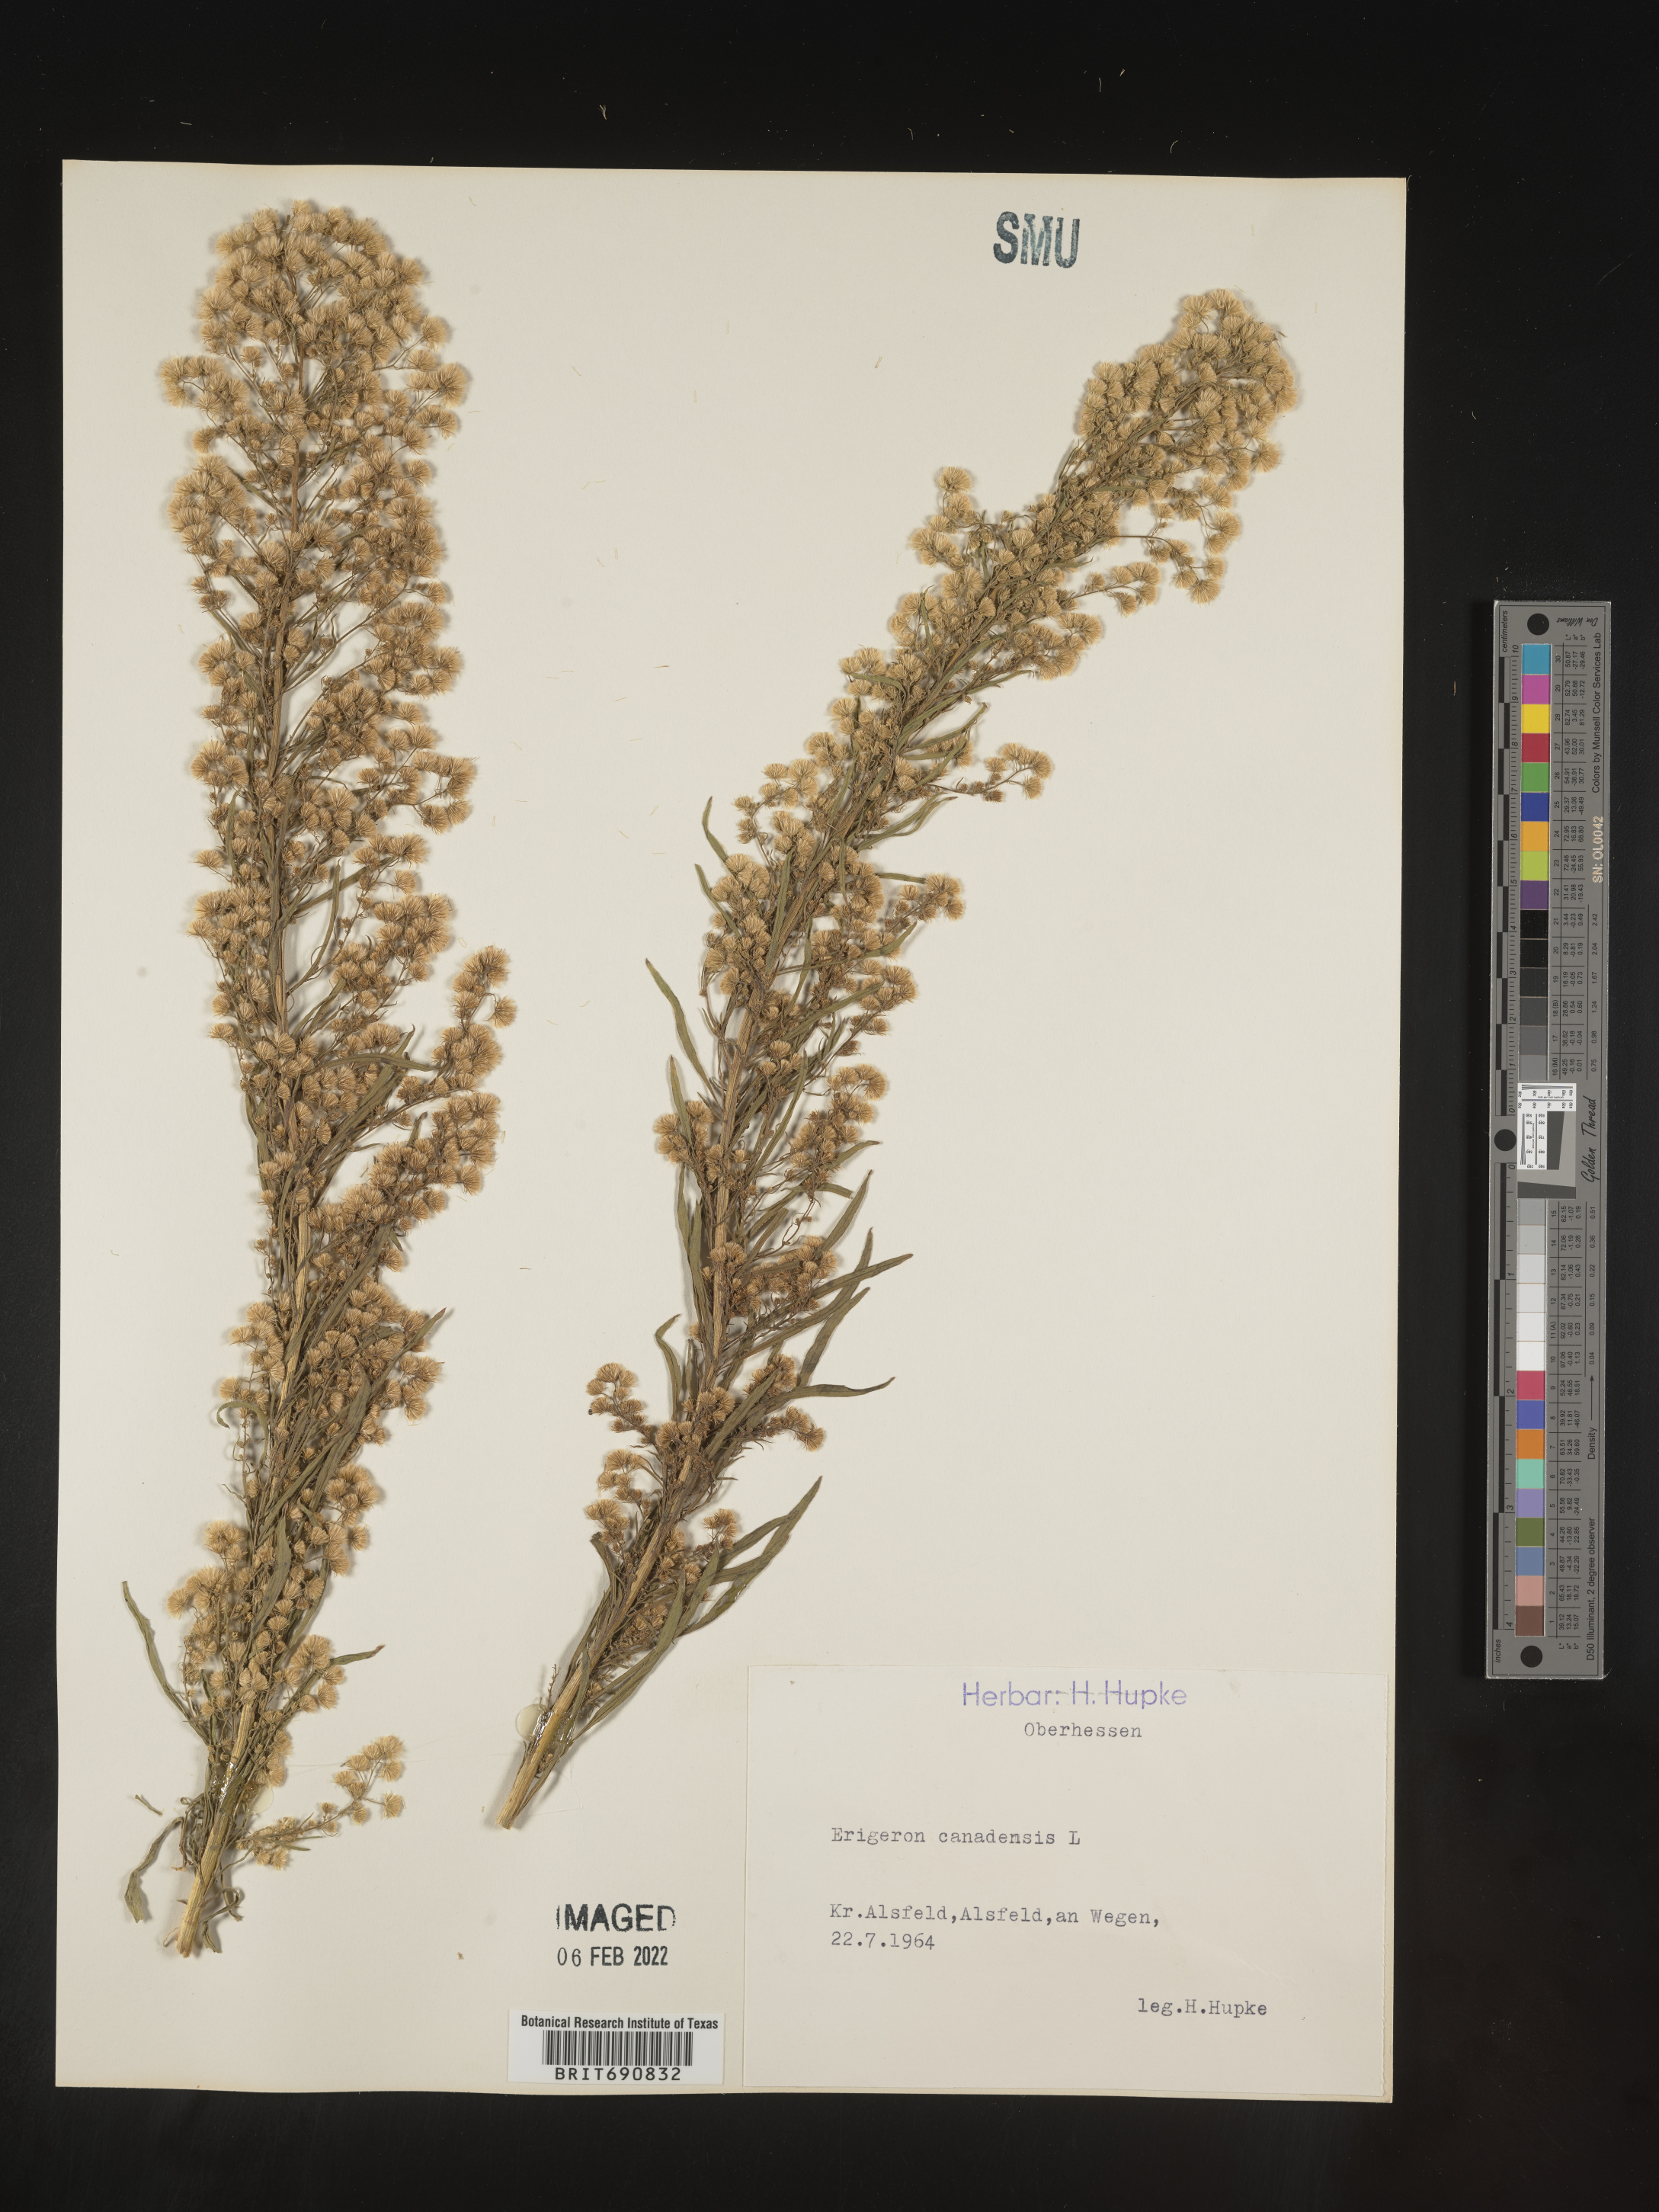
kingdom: Plantae
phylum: Tracheophyta
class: Magnoliopsida
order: Asterales
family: Asteraceae
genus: Conyza
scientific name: Conyza
